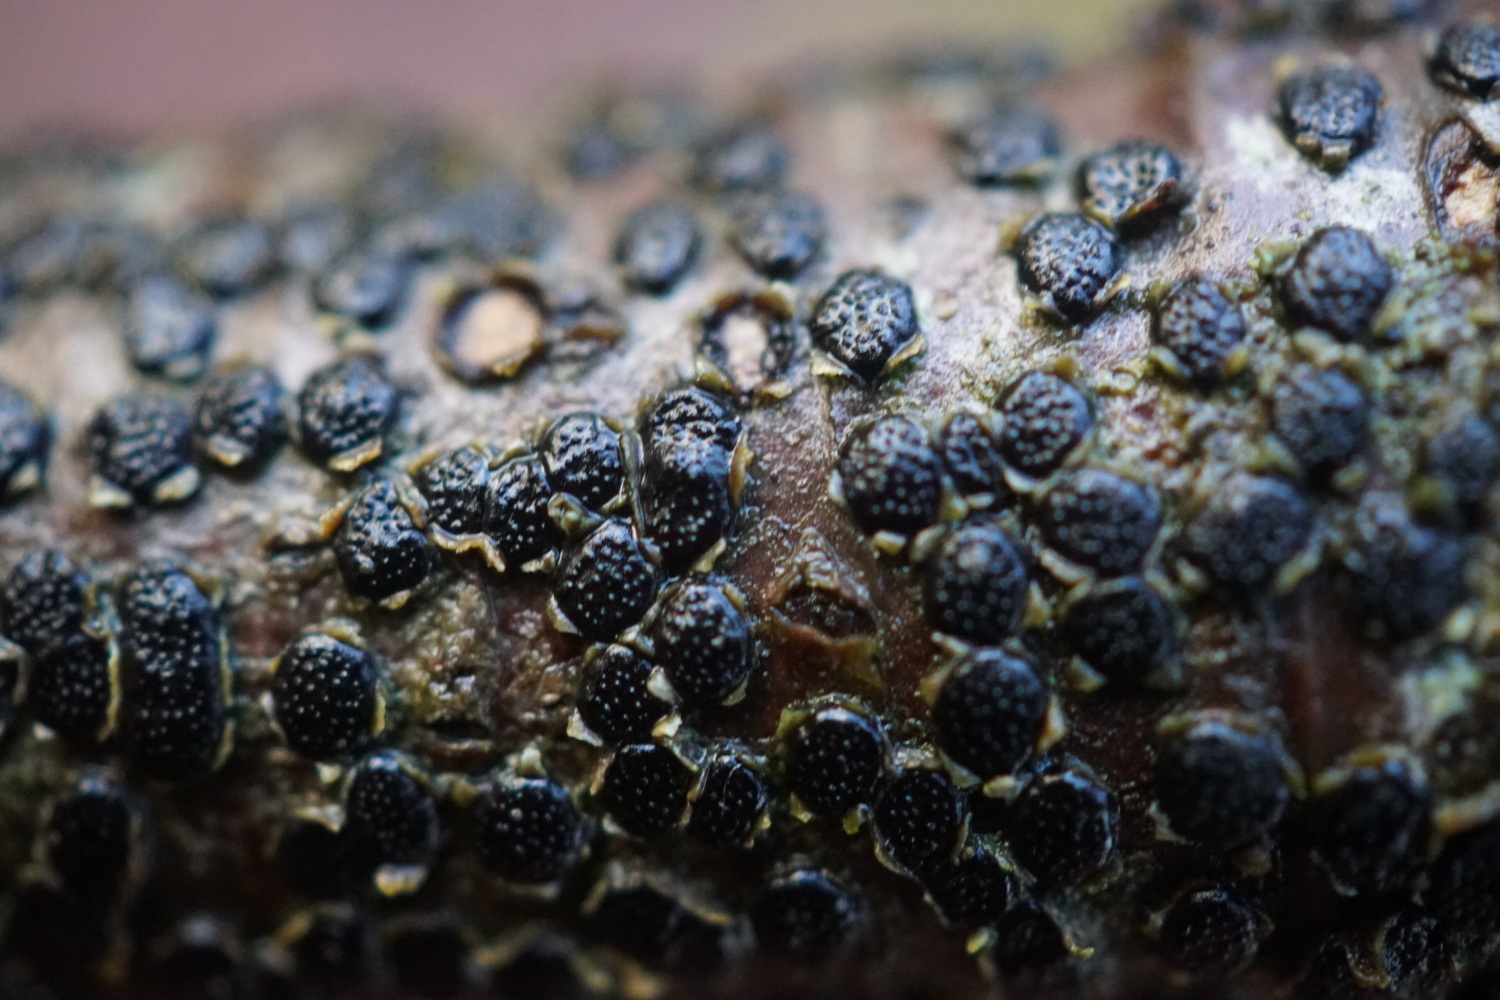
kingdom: Fungi
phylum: Ascomycota
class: Sordariomycetes
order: Xylariales
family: Diatrypaceae
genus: Diatrype
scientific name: Diatrype disciformis
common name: kant-kulskorpe
